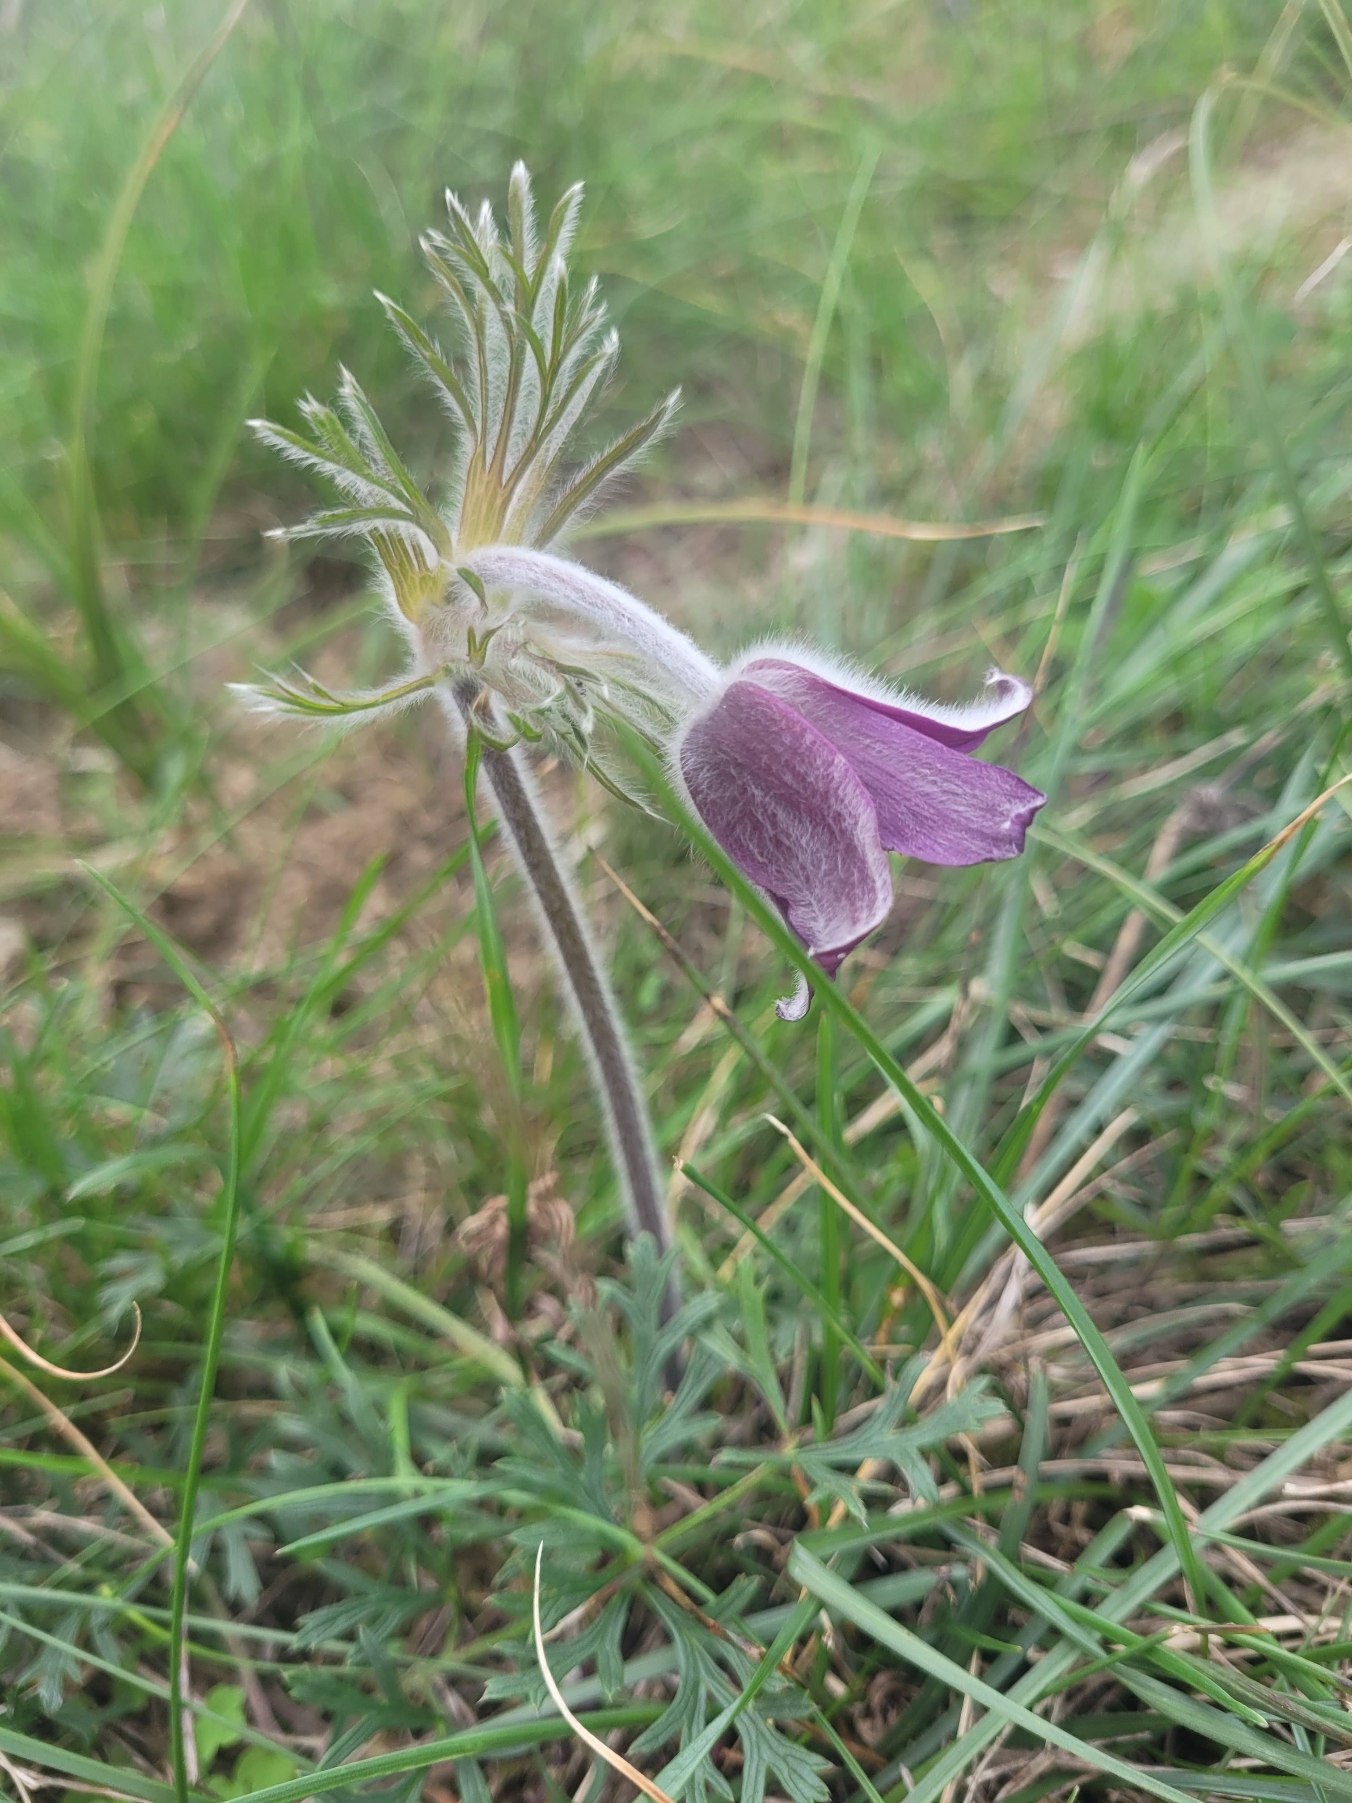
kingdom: Plantae
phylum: Tracheophyta
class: Magnoliopsida
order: Ranunculales
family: Ranunculaceae
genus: Pulsatilla
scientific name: Pulsatilla pratensis
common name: Nikkende kobjælde
